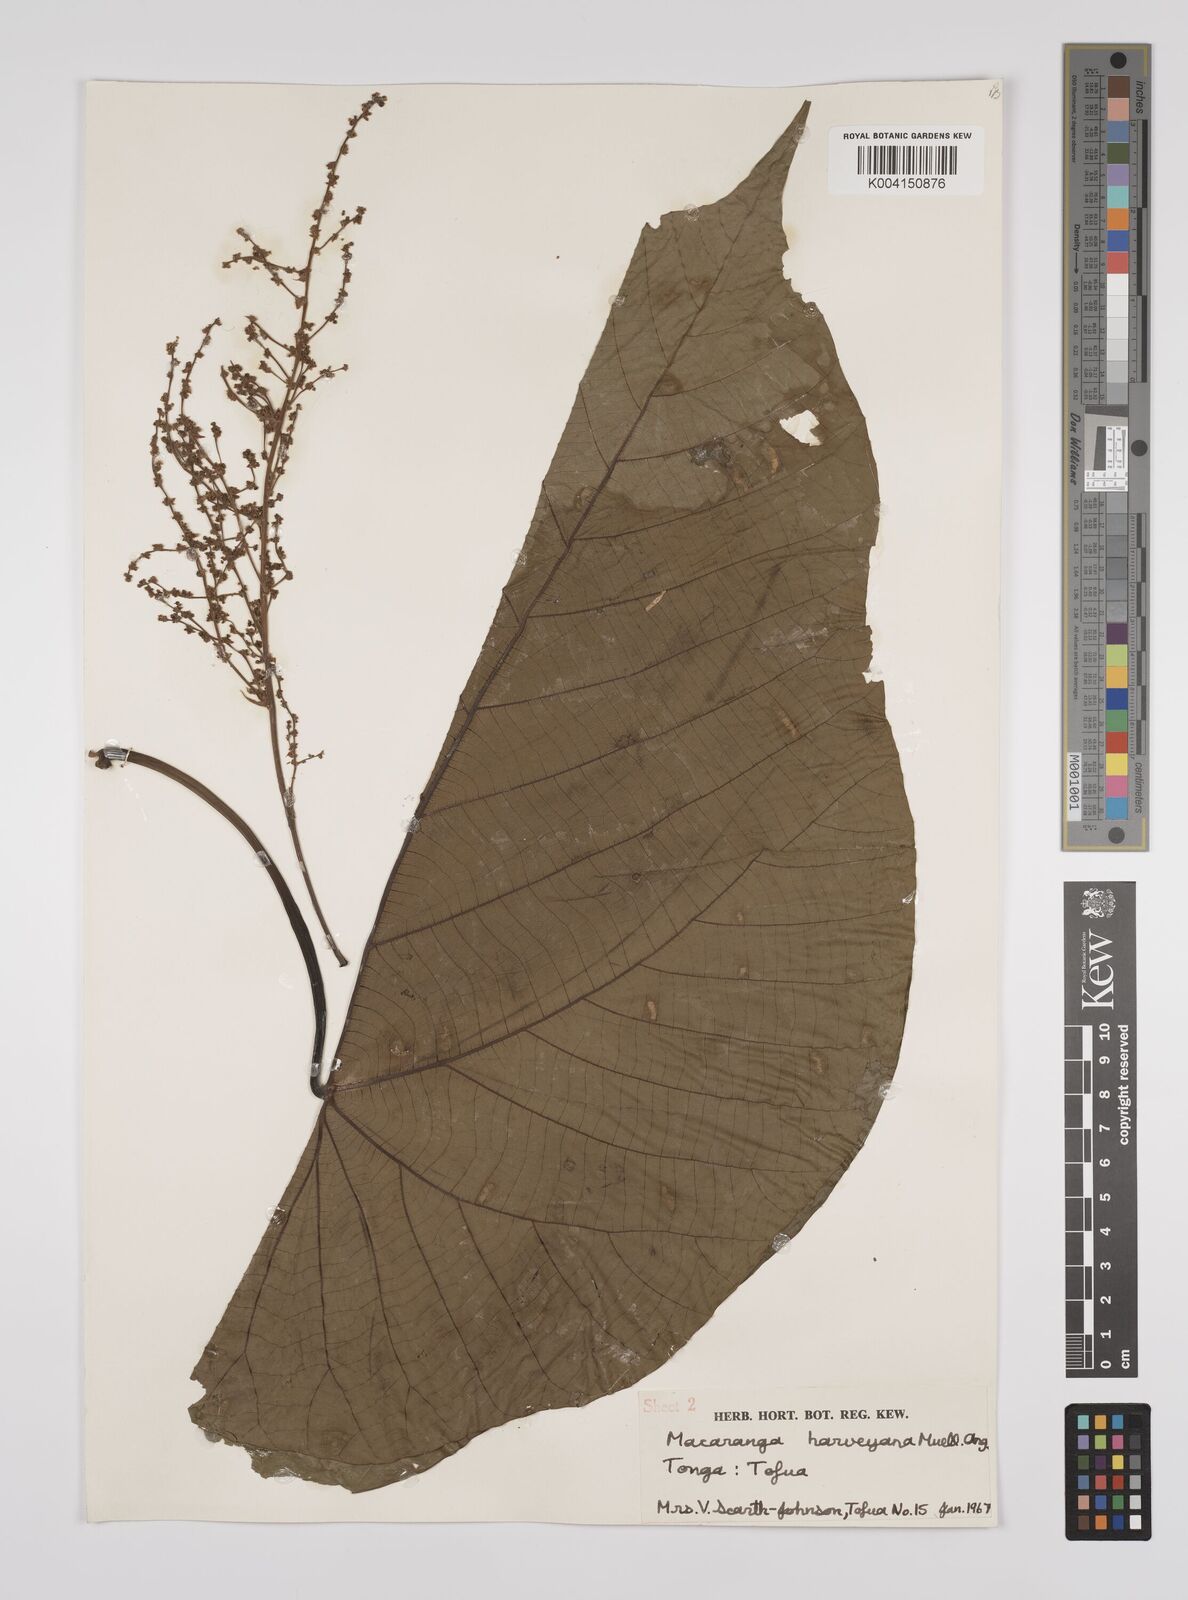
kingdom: Plantae
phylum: Tracheophyta
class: Magnoliopsida
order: Malpighiales
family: Euphorbiaceae
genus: Macaranga
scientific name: Macaranga harveyana
